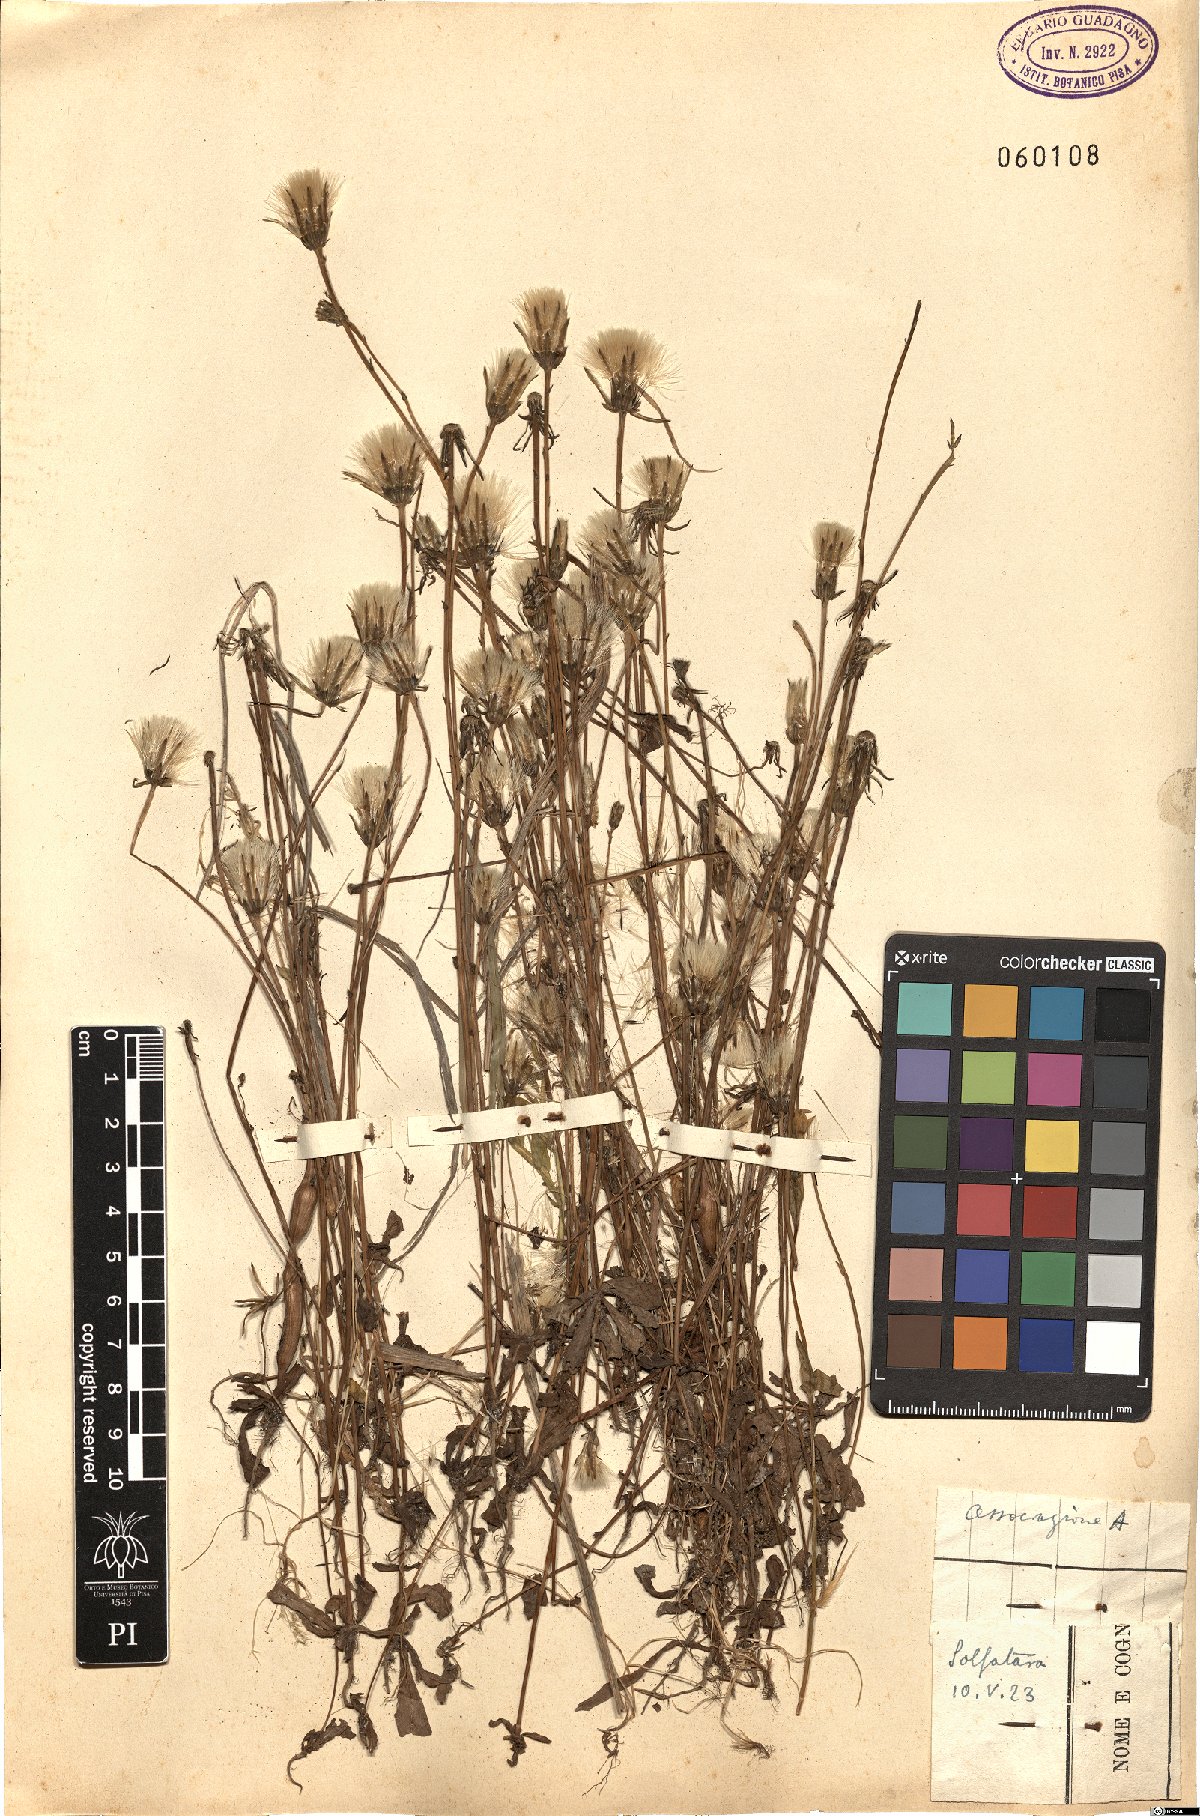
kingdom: Plantae
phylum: Tracheophyta
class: Magnoliopsida
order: Asterales
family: Asteraceae
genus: Hypochaeris
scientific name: Hypochaeris glabra
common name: Smooth catsear
